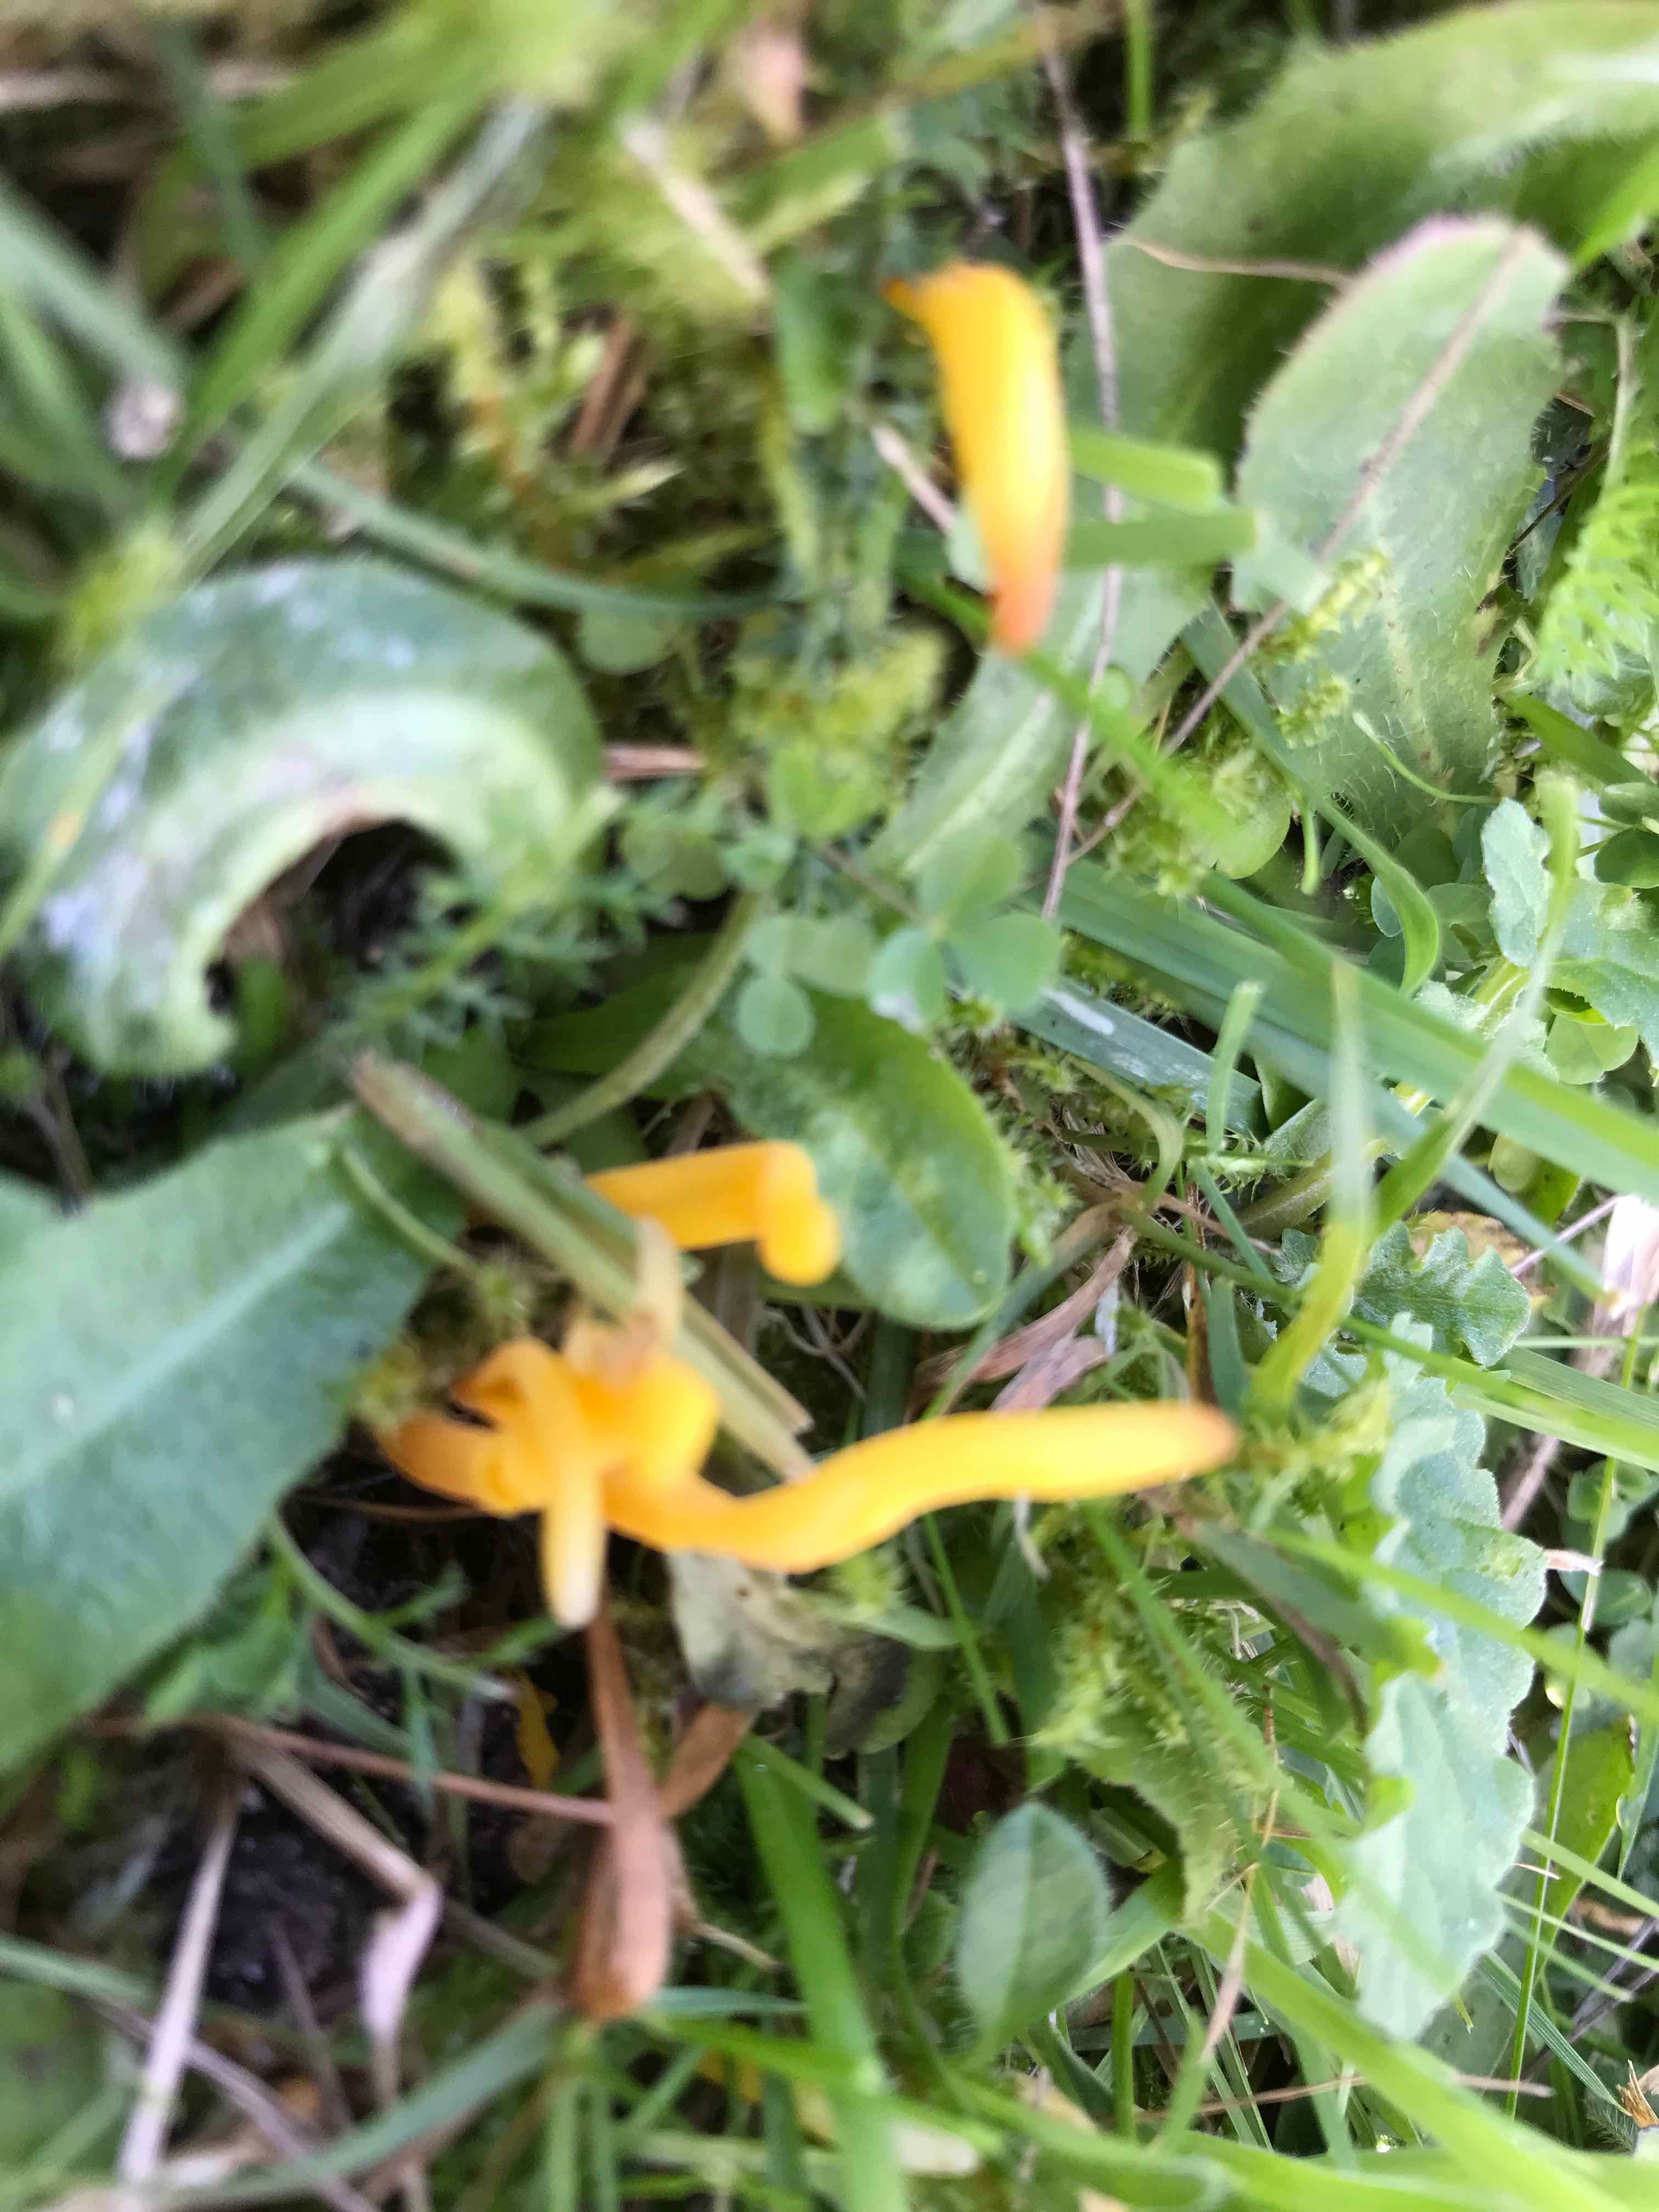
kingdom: Fungi
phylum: Basidiomycota
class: Agaricomycetes
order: Agaricales
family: Clavariaceae
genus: Clavulinopsis
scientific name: Clavulinopsis
